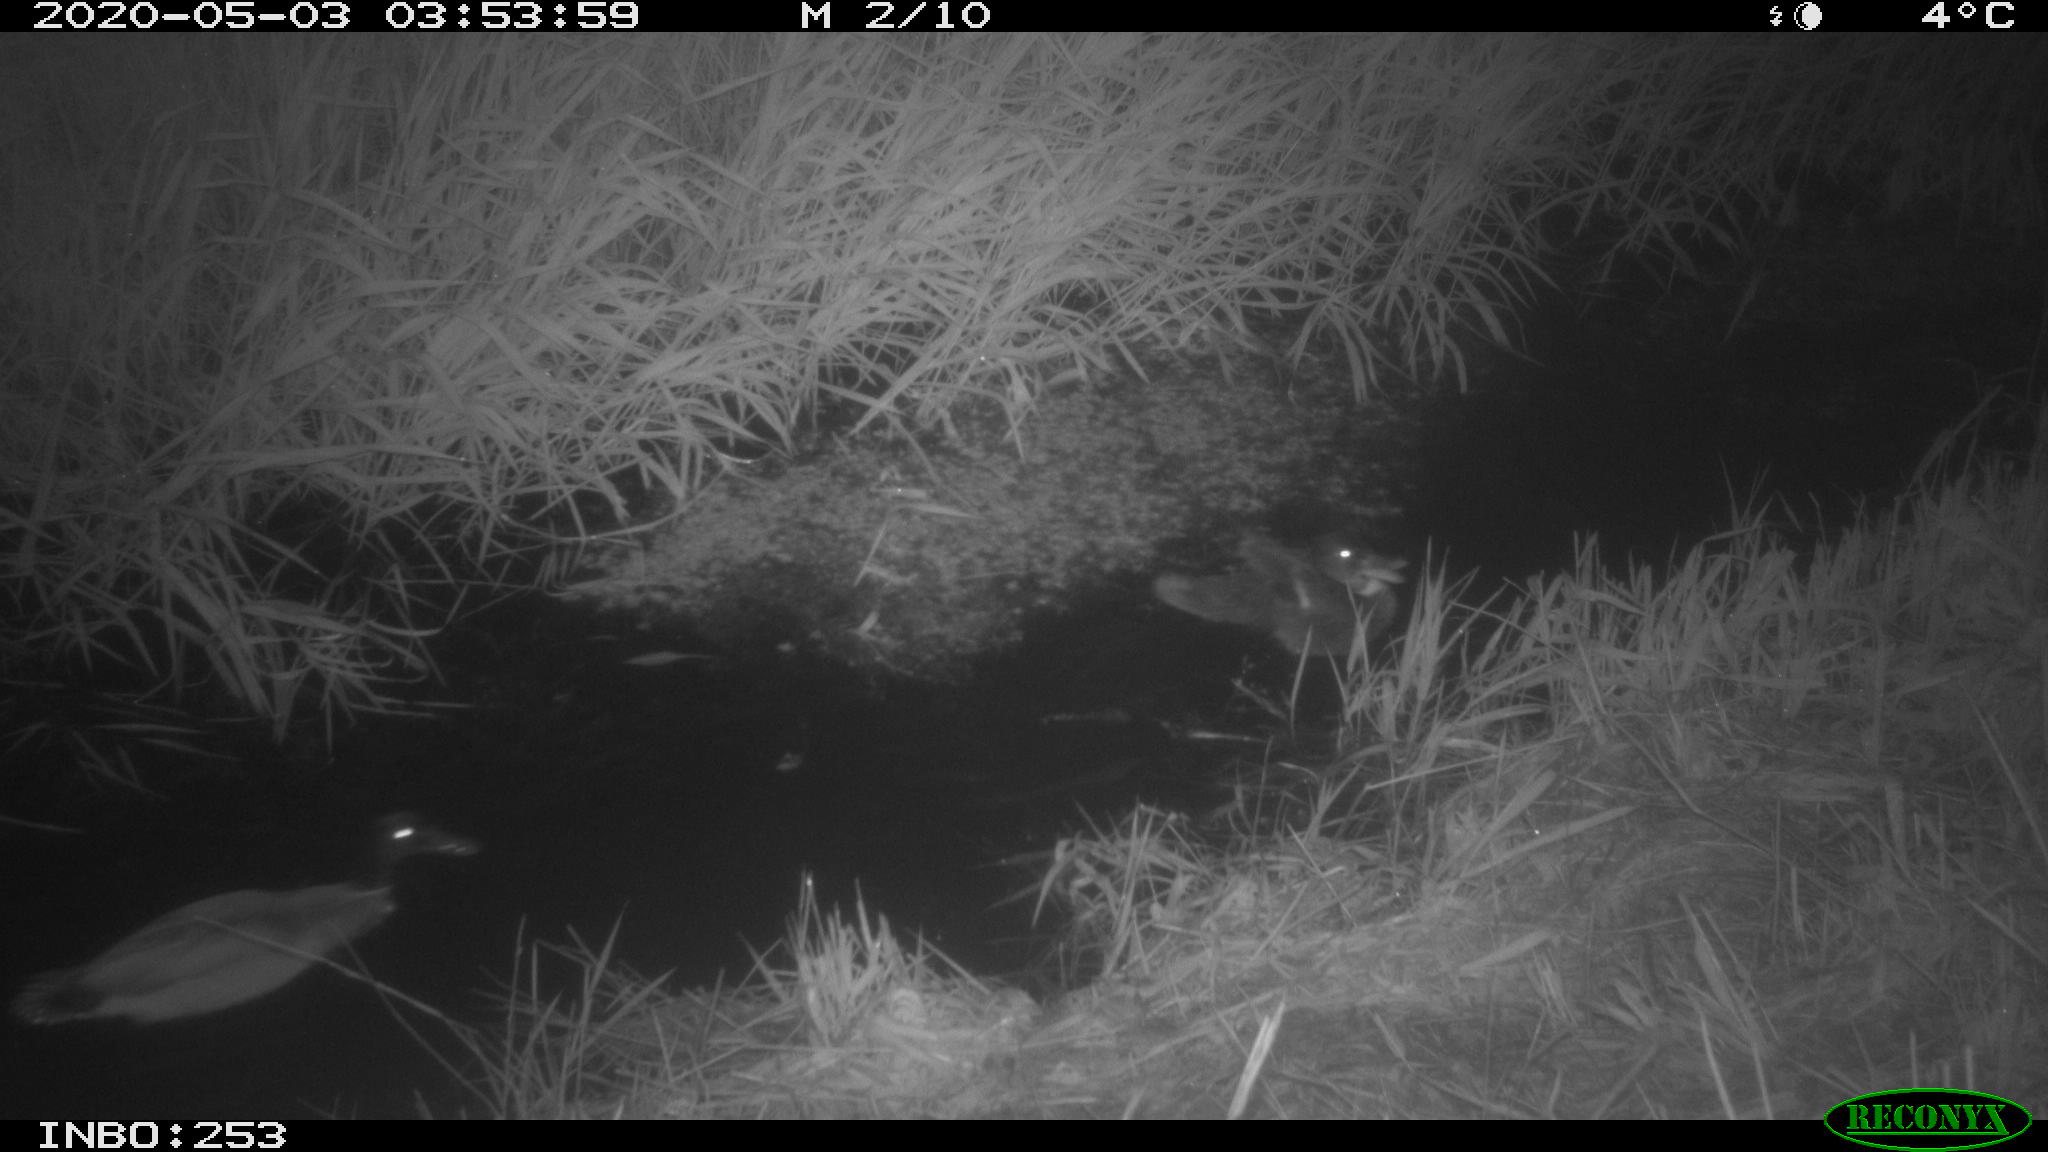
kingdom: Animalia
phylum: Chordata
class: Aves
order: Anseriformes
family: Anatidae
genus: Anas
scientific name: Anas platyrhynchos
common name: Mallard
